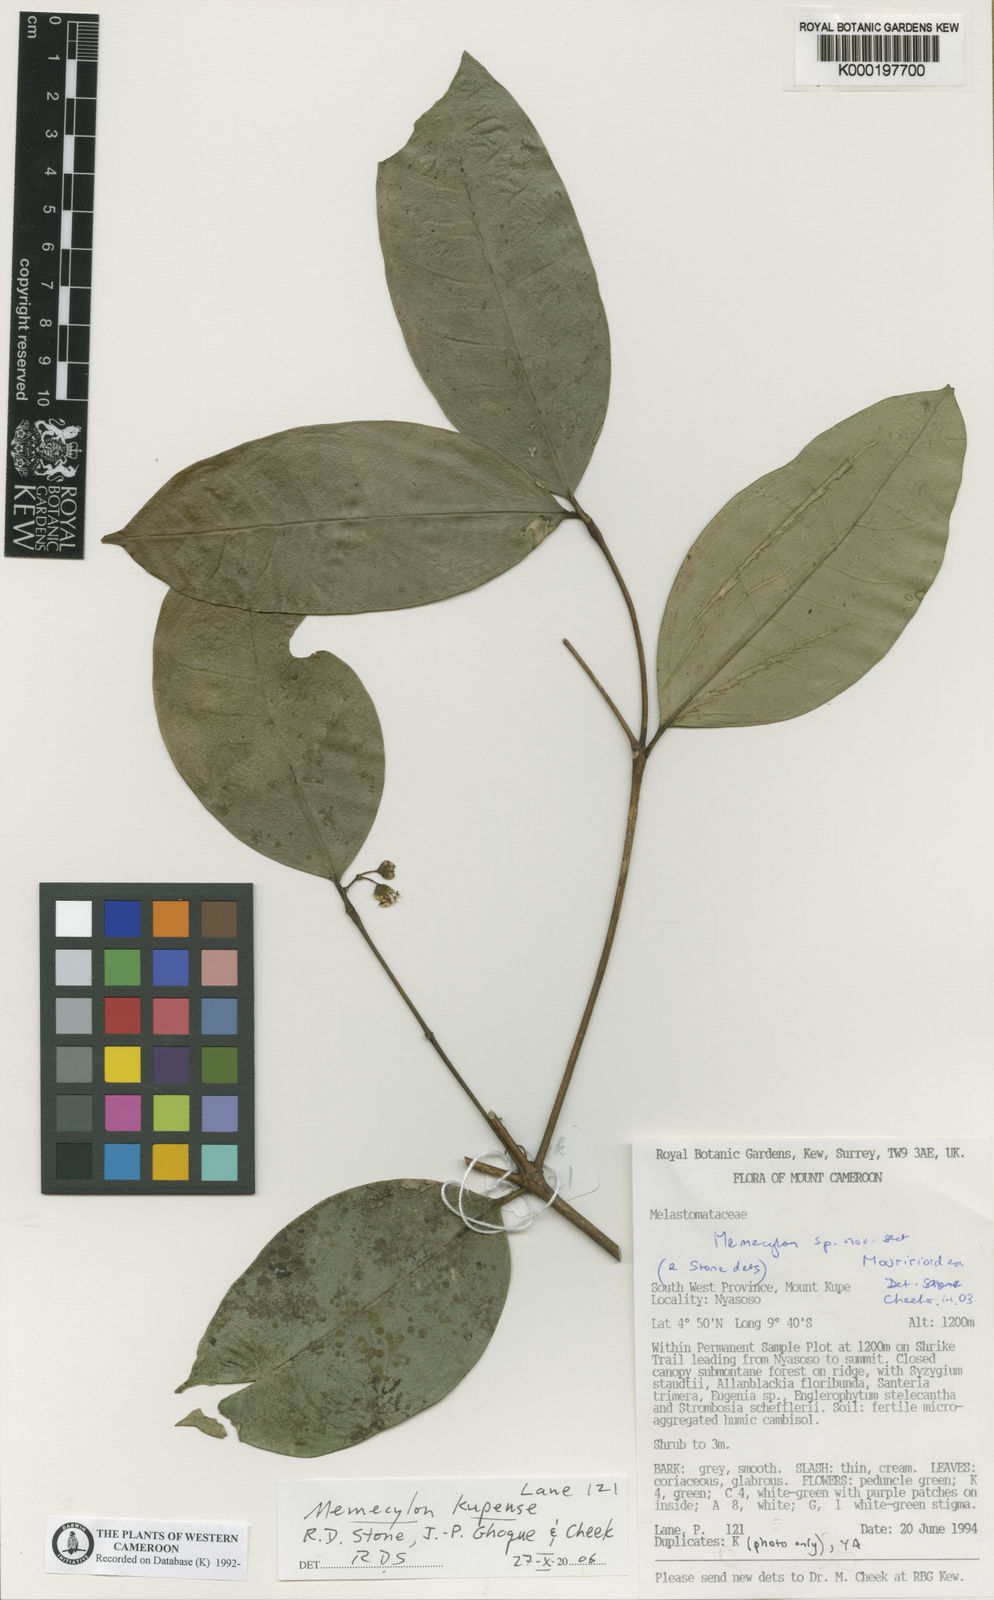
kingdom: Plantae
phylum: Tracheophyta
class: Magnoliopsida
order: Myrtales
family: Melastomataceae
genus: Memecylon
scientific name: Memecylon
